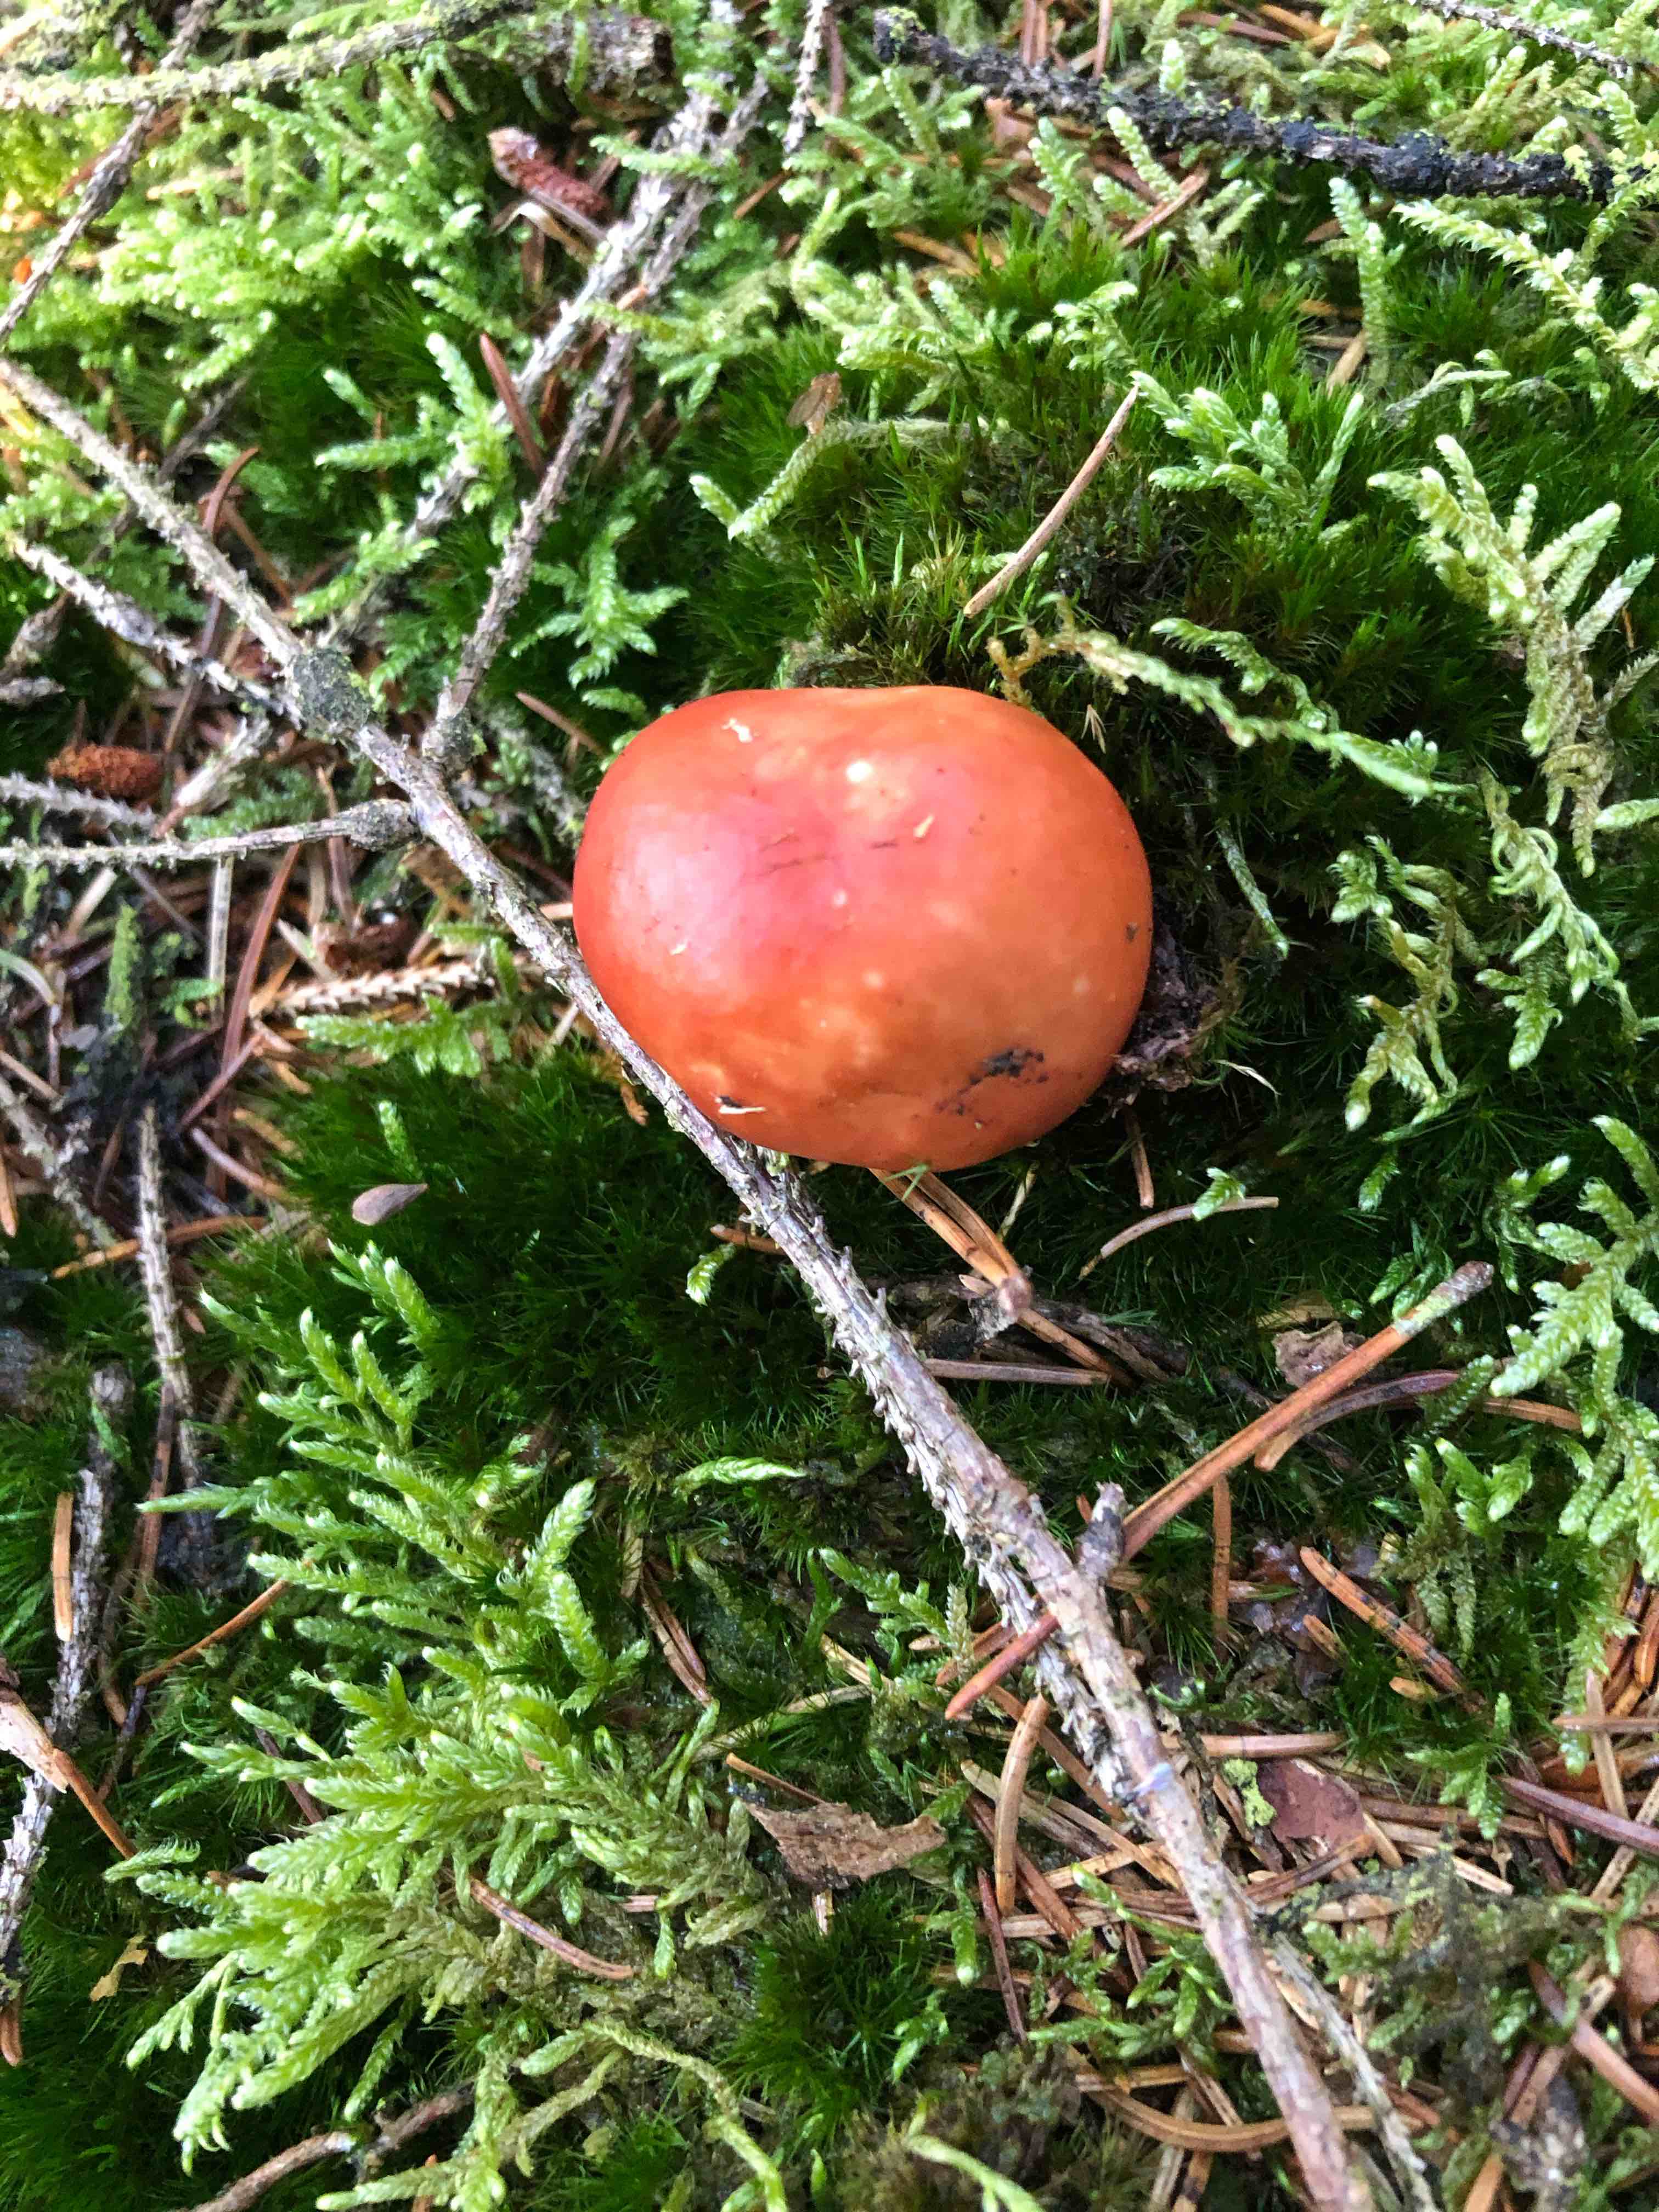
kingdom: Fungi
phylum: Basidiomycota
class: Agaricomycetes
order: Russulales
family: Russulaceae
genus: Russula
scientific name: Russula paludosa
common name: prægtig skørhat
